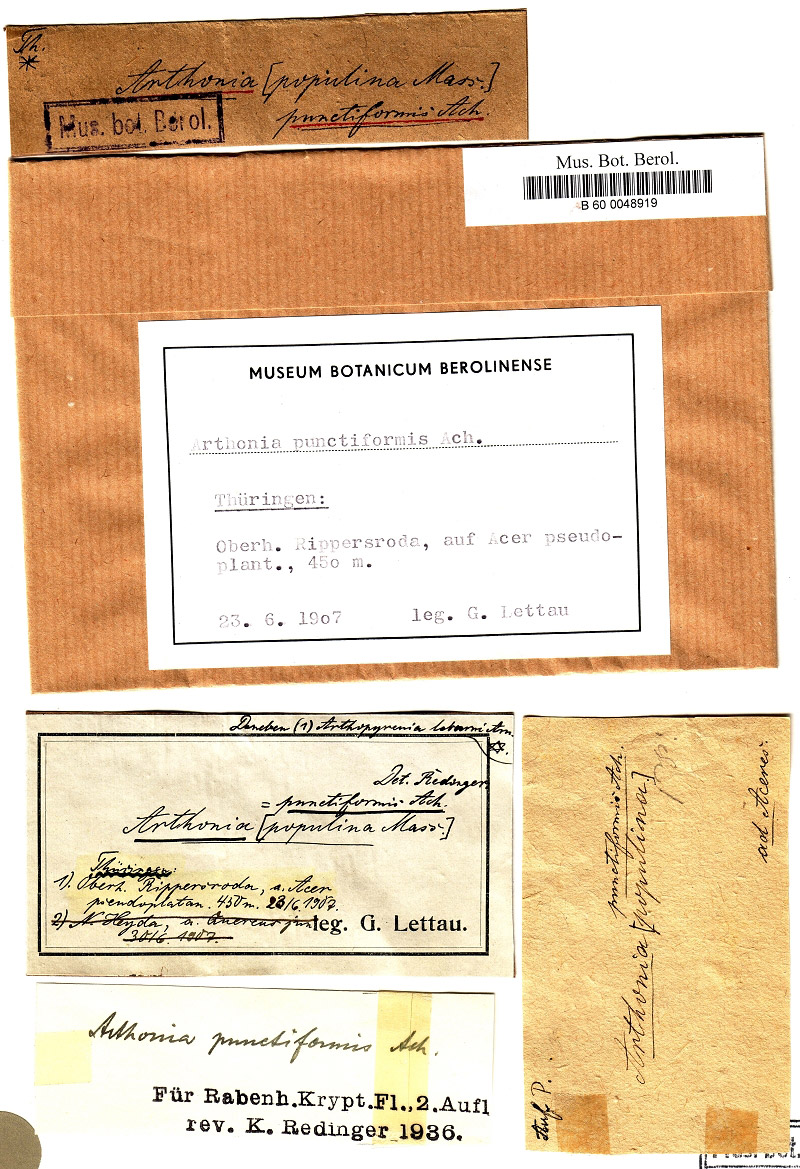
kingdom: Fungi
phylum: Ascomycota
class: Dothideomycetes
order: Pleosporales
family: Naetrocymbaceae
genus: Naetrocymbe
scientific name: Naetrocymbe punctiformis
